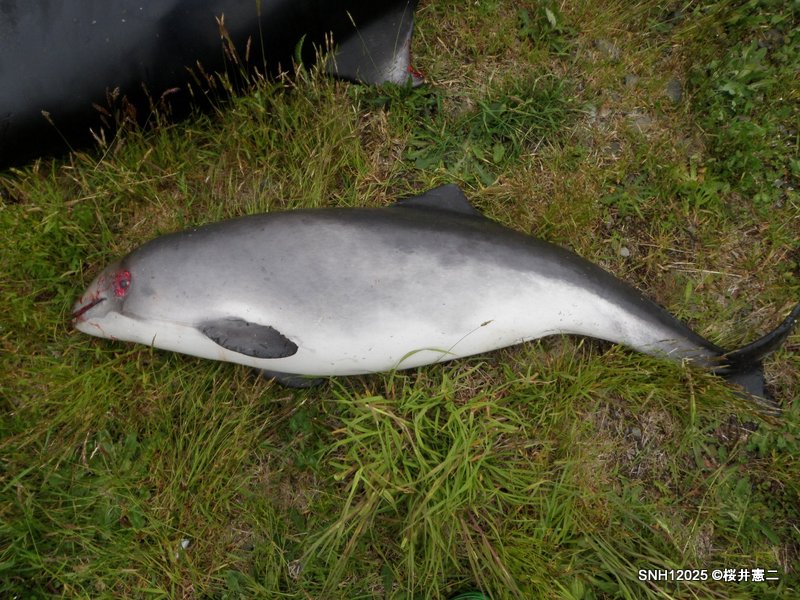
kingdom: Animalia
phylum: Chordata
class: Mammalia
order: Cetacea
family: Phocoenidae
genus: Phocoena
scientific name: Phocoena phocoena
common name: Harbour porpoise
